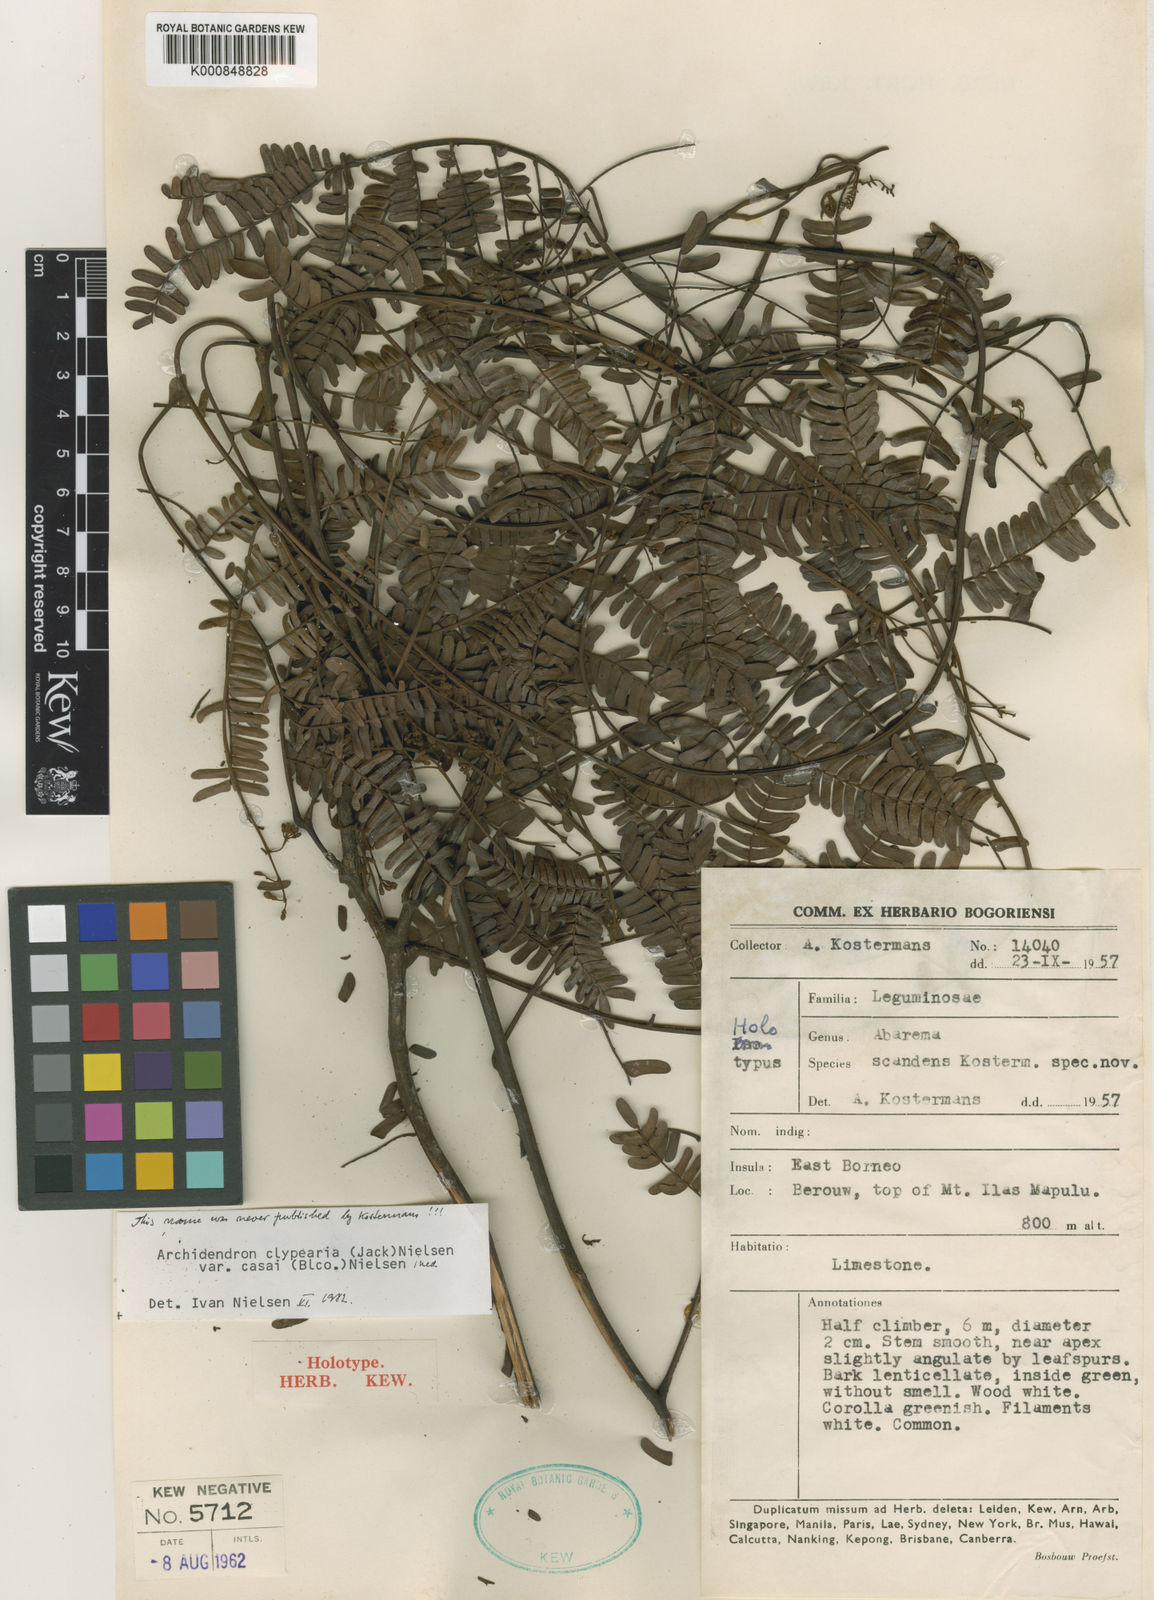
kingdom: Plantae
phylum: Tracheophyta
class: Magnoliopsida
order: Fabales
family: Fabaceae
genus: Archidendron
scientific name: Archidendron clypearia
